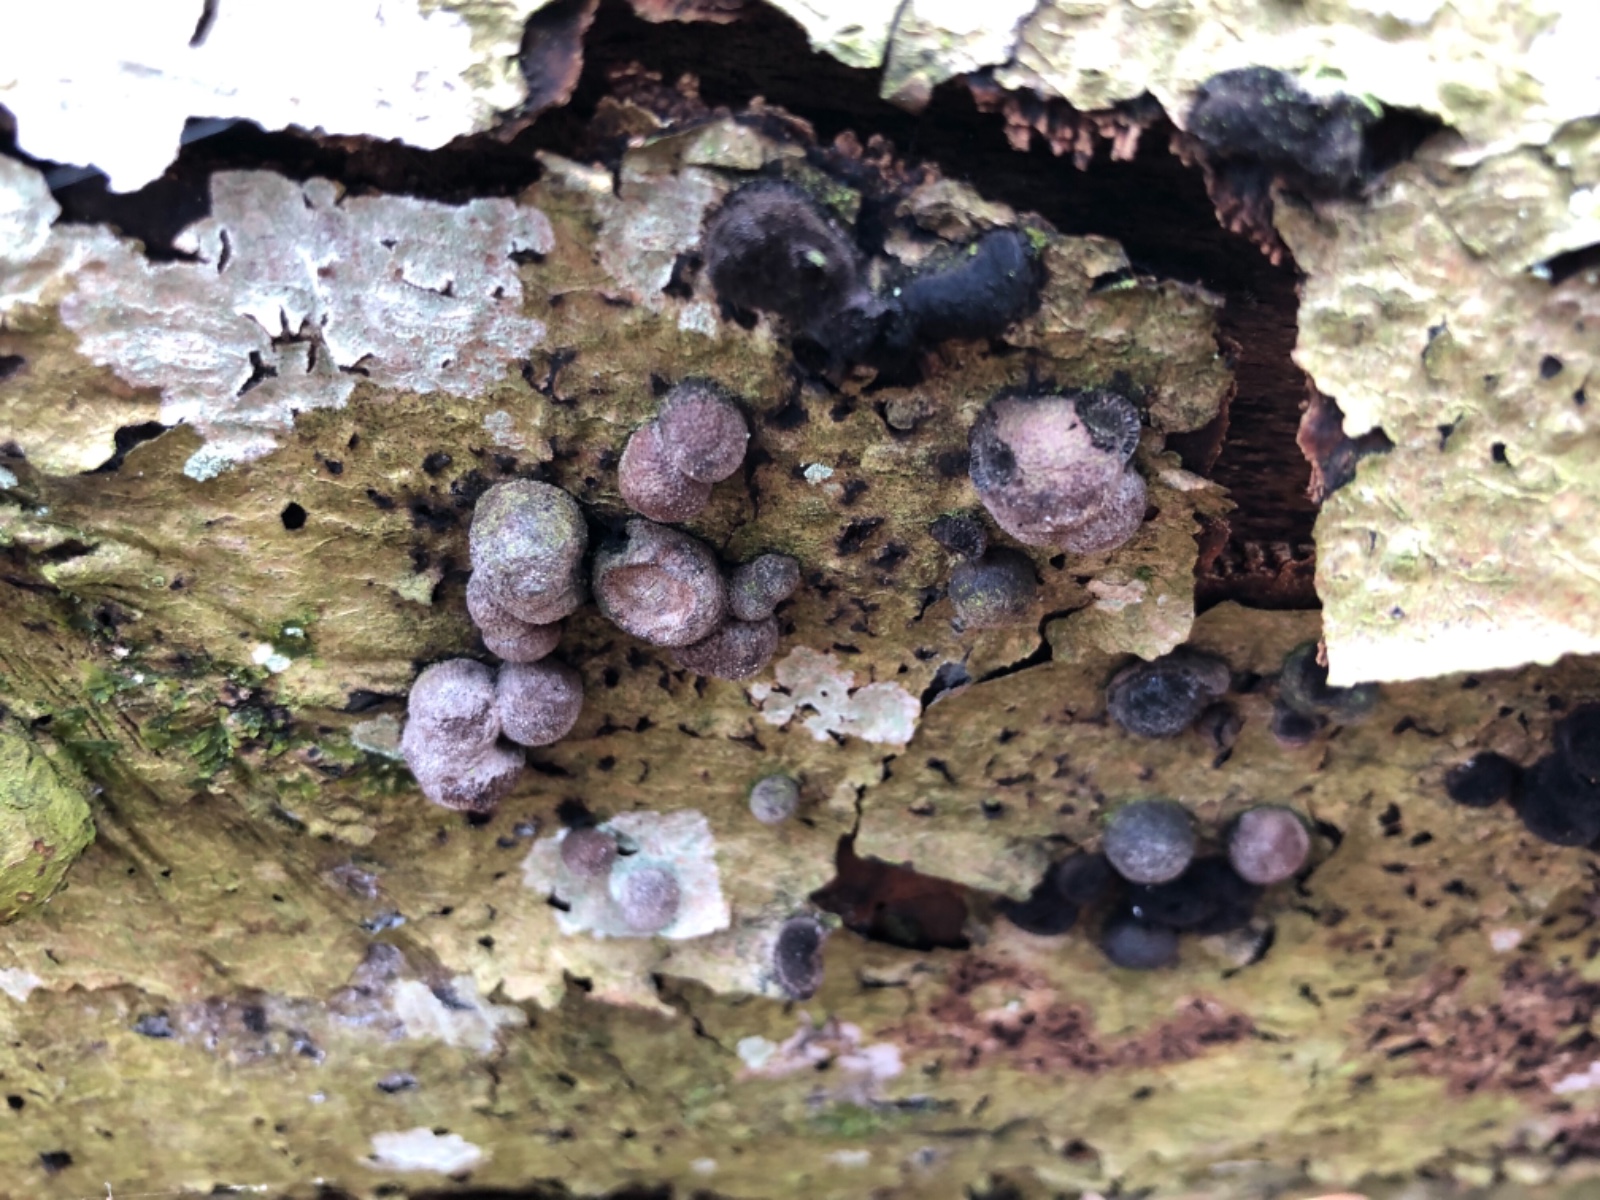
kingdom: Fungi
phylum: Ascomycota
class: Sordariomycetes
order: Xylariales
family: Hypoxylaceae
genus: Hypoxylon
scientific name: Hypoxylon fragiforme
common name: kuljordbær
